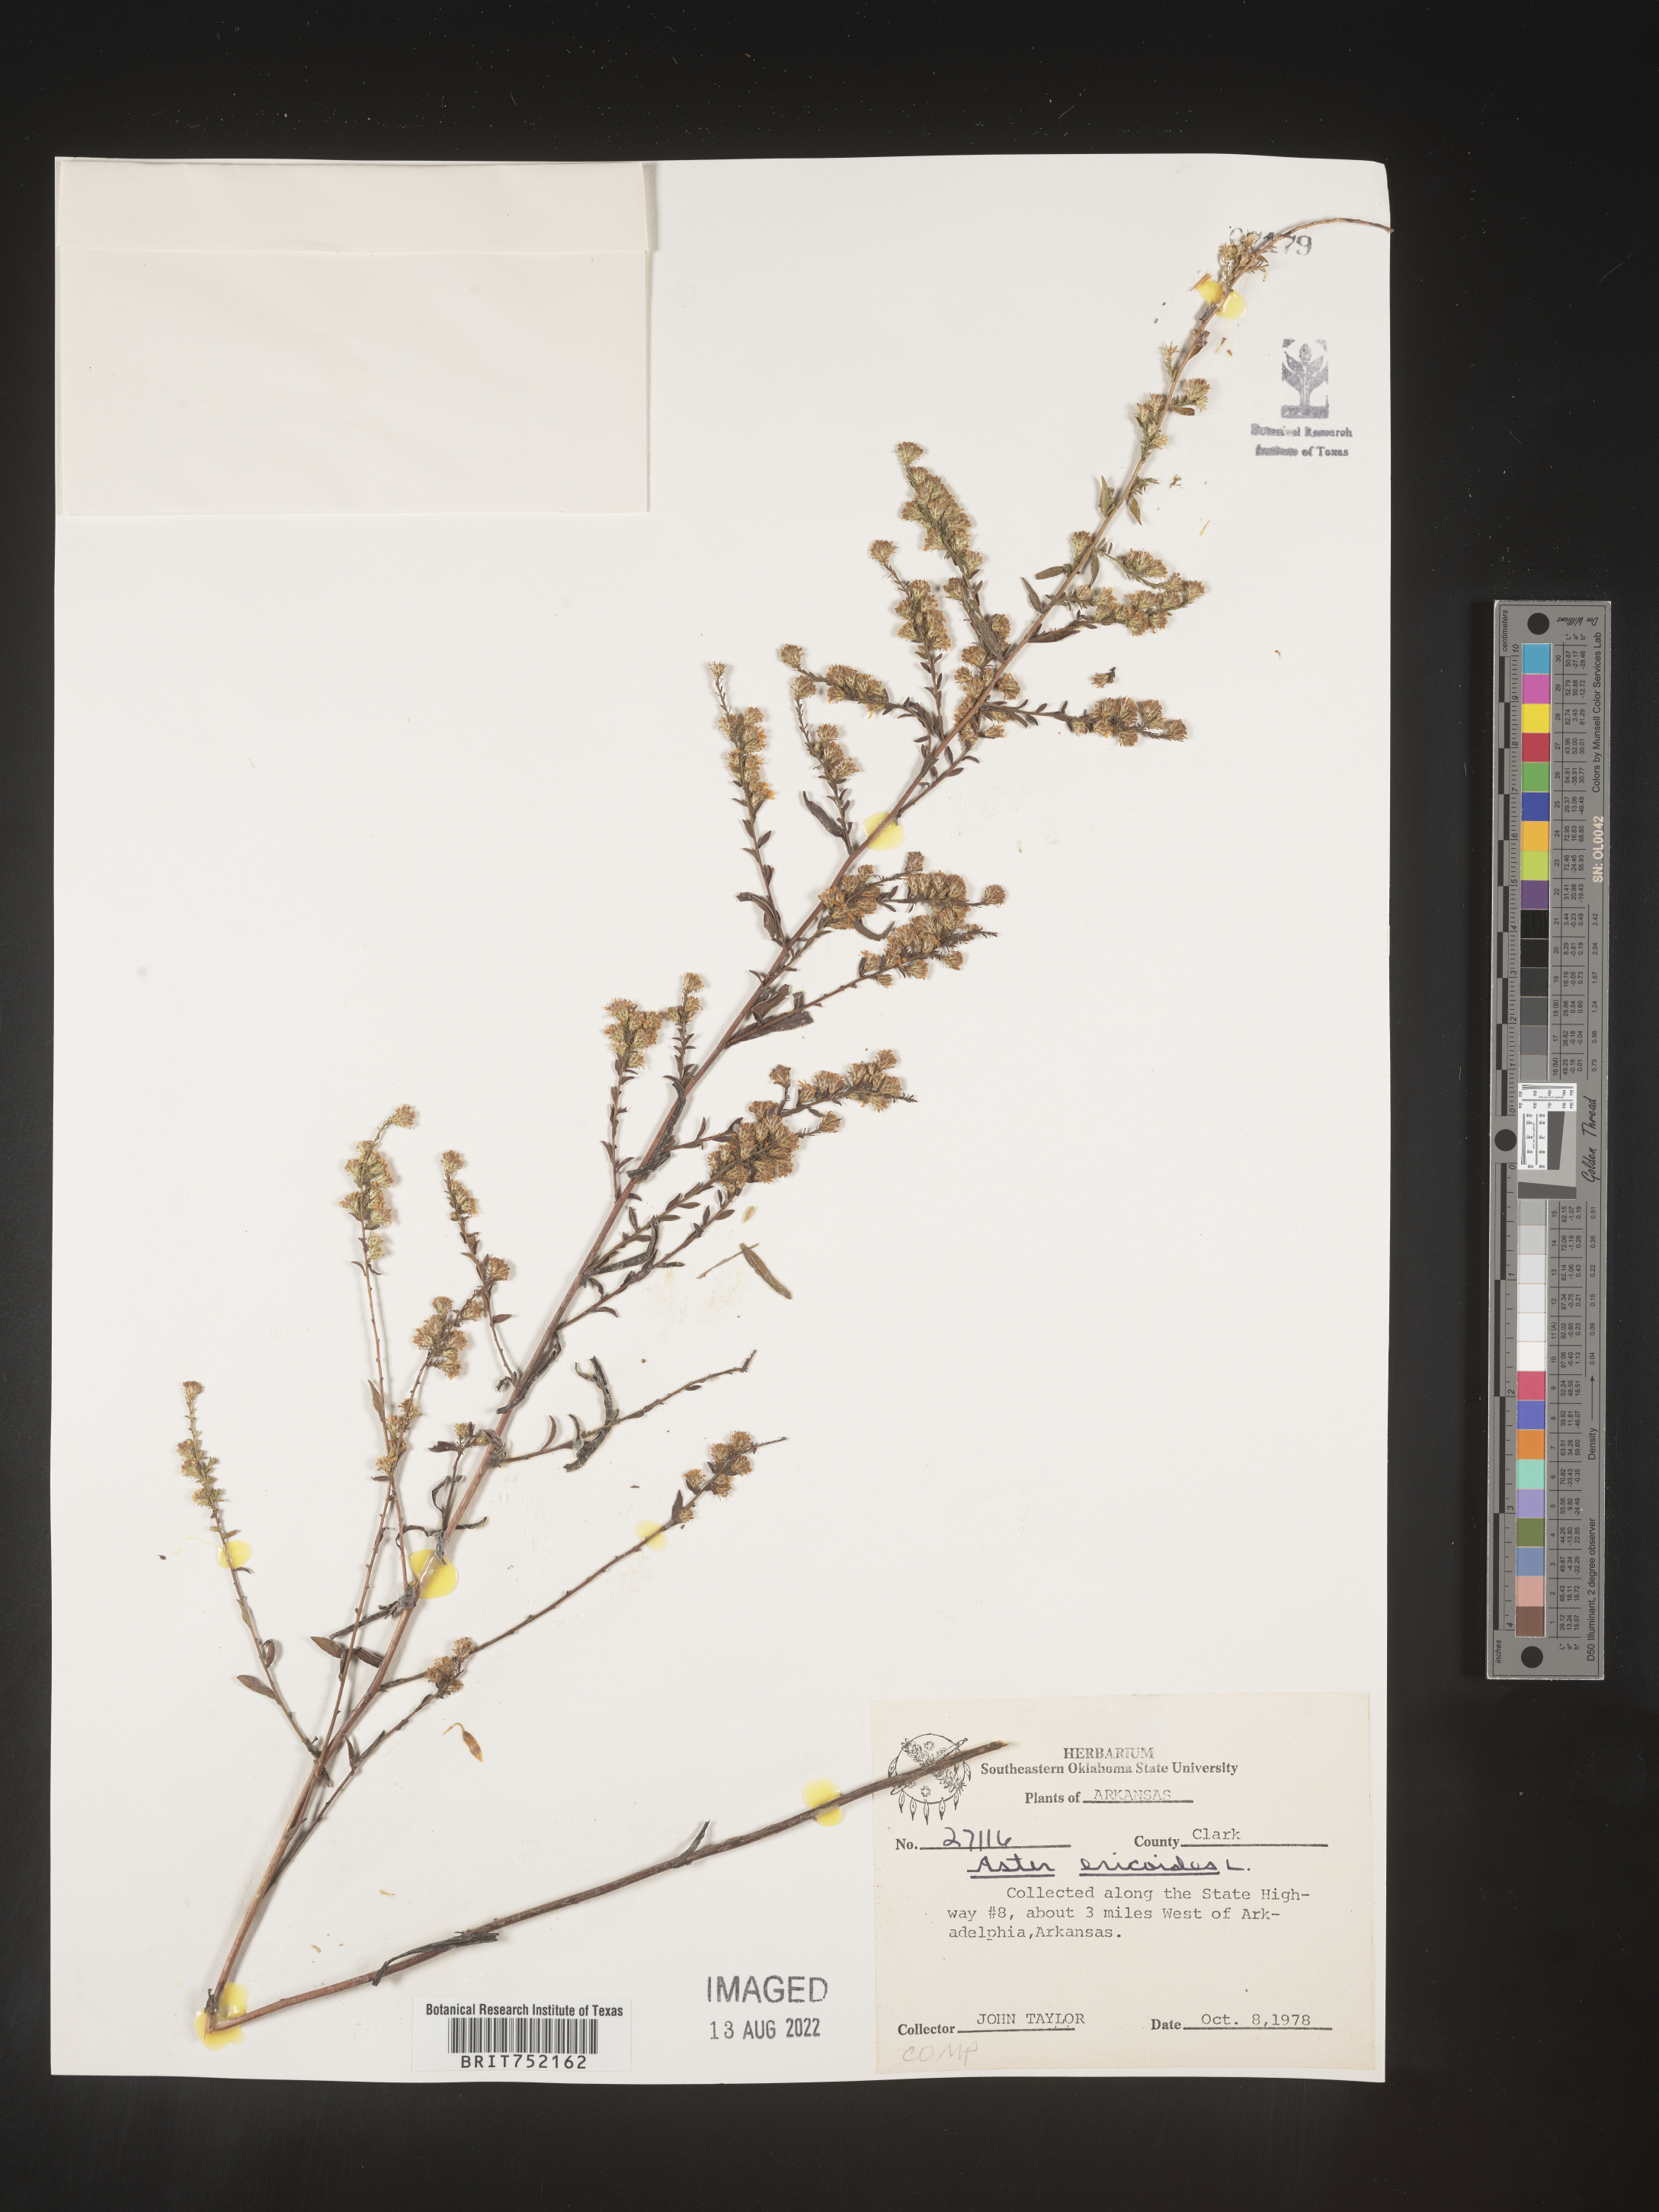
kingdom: Plantae
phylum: Tracheophyta
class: Magnoliopsida
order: Asterales
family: Asteraceae
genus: Symphyotrichum
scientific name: Symphyotrichum ericoides
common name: Heath aster
